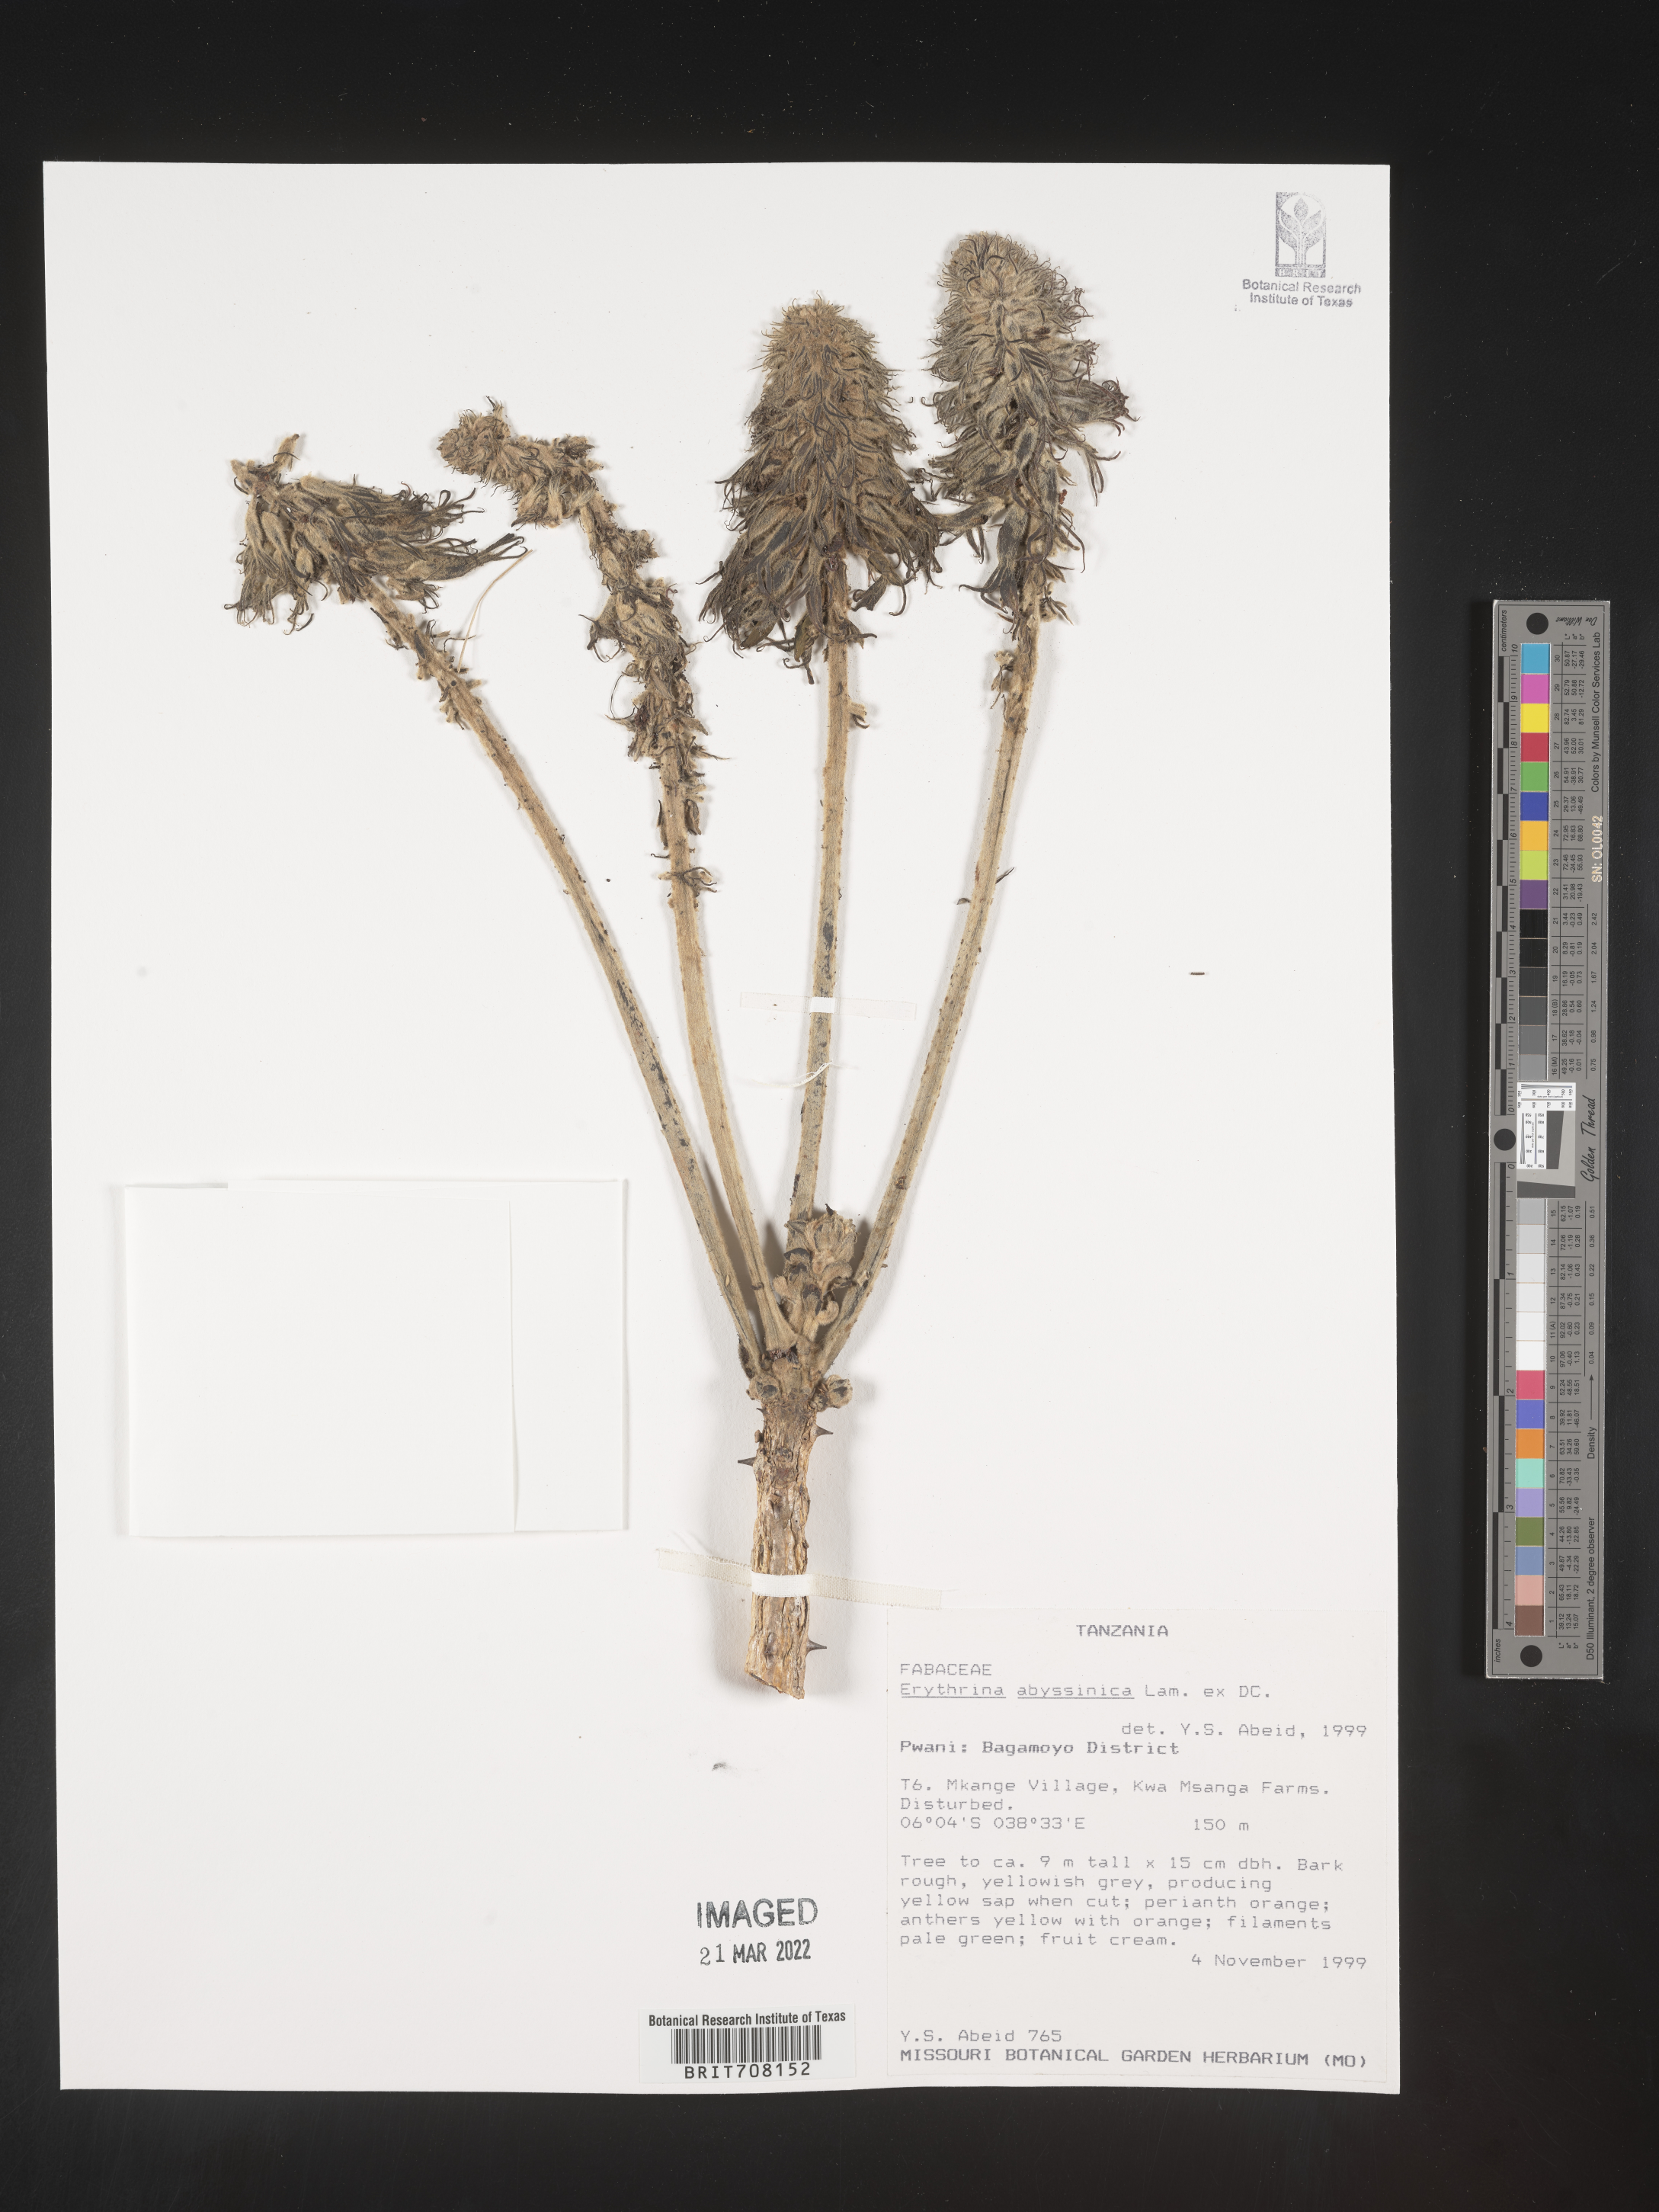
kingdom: Plantae
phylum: Tracheophyta
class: Magnoliopsida
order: Fabales
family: Fabaceae
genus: Erythrina
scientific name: Erythrina
